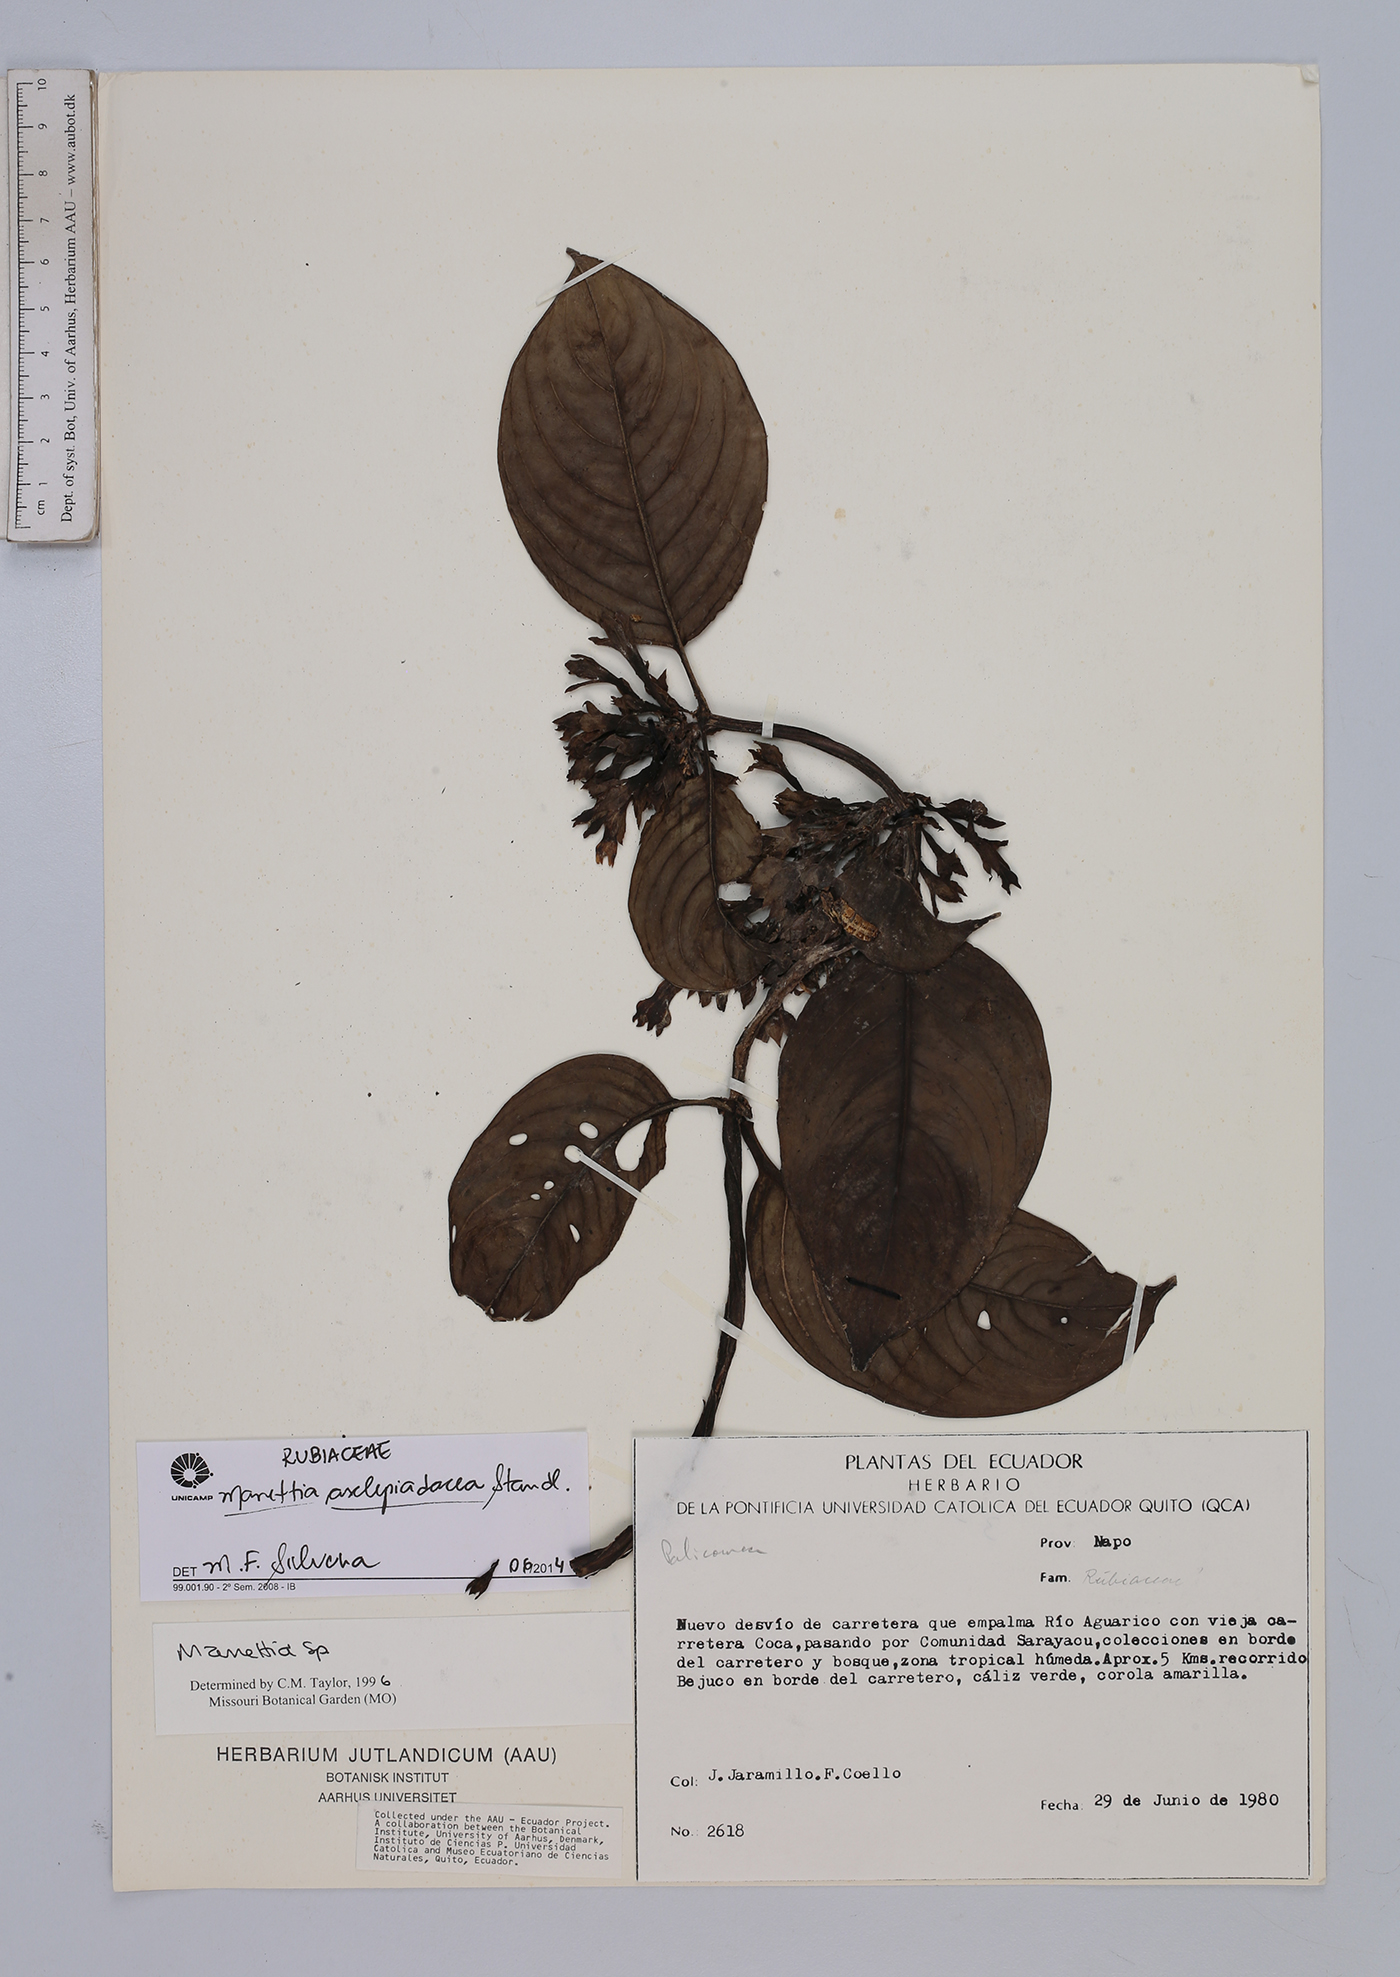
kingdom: Plantae
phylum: Tracheophyta
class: Magnoliopsida
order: Gentianales
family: Rubiaceae
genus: Manettia
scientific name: Manettia asclepiadacea
